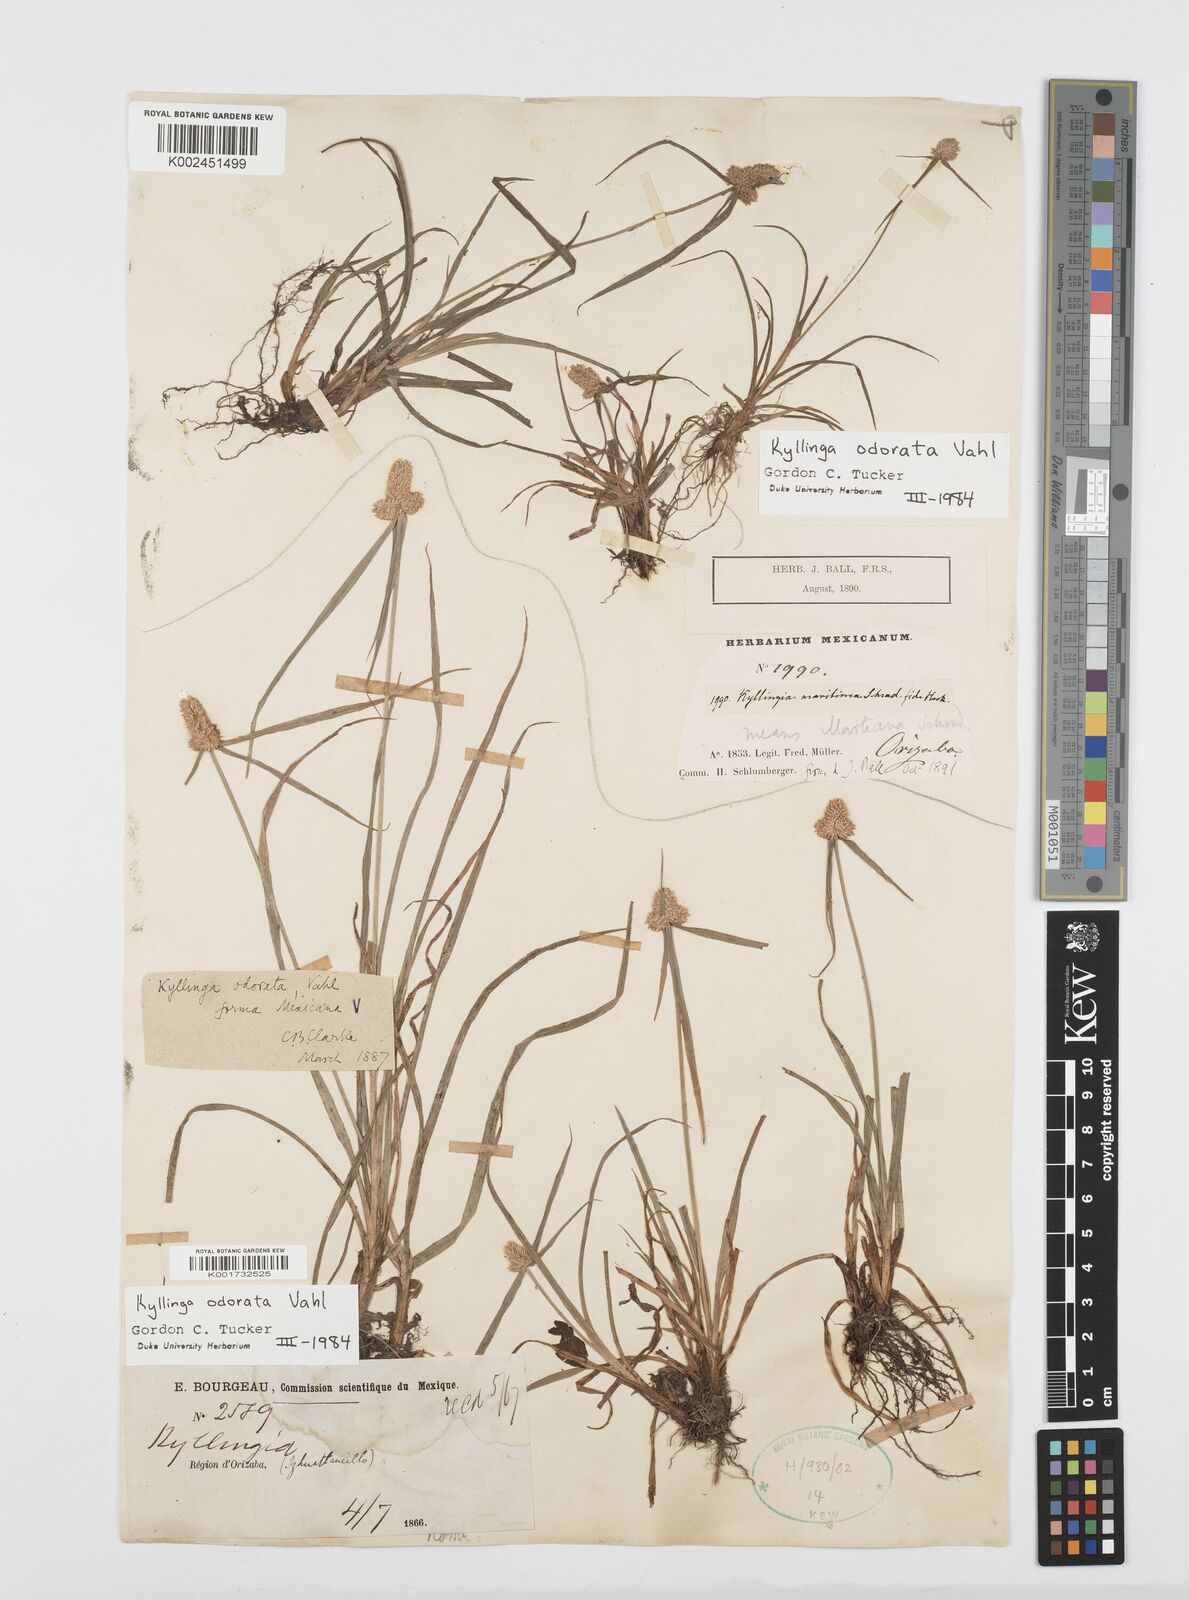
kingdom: Plantae
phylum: Tracheophyta
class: Liliopsida
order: Poales
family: Cyperaceae
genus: Cyperus
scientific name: Cyperus
